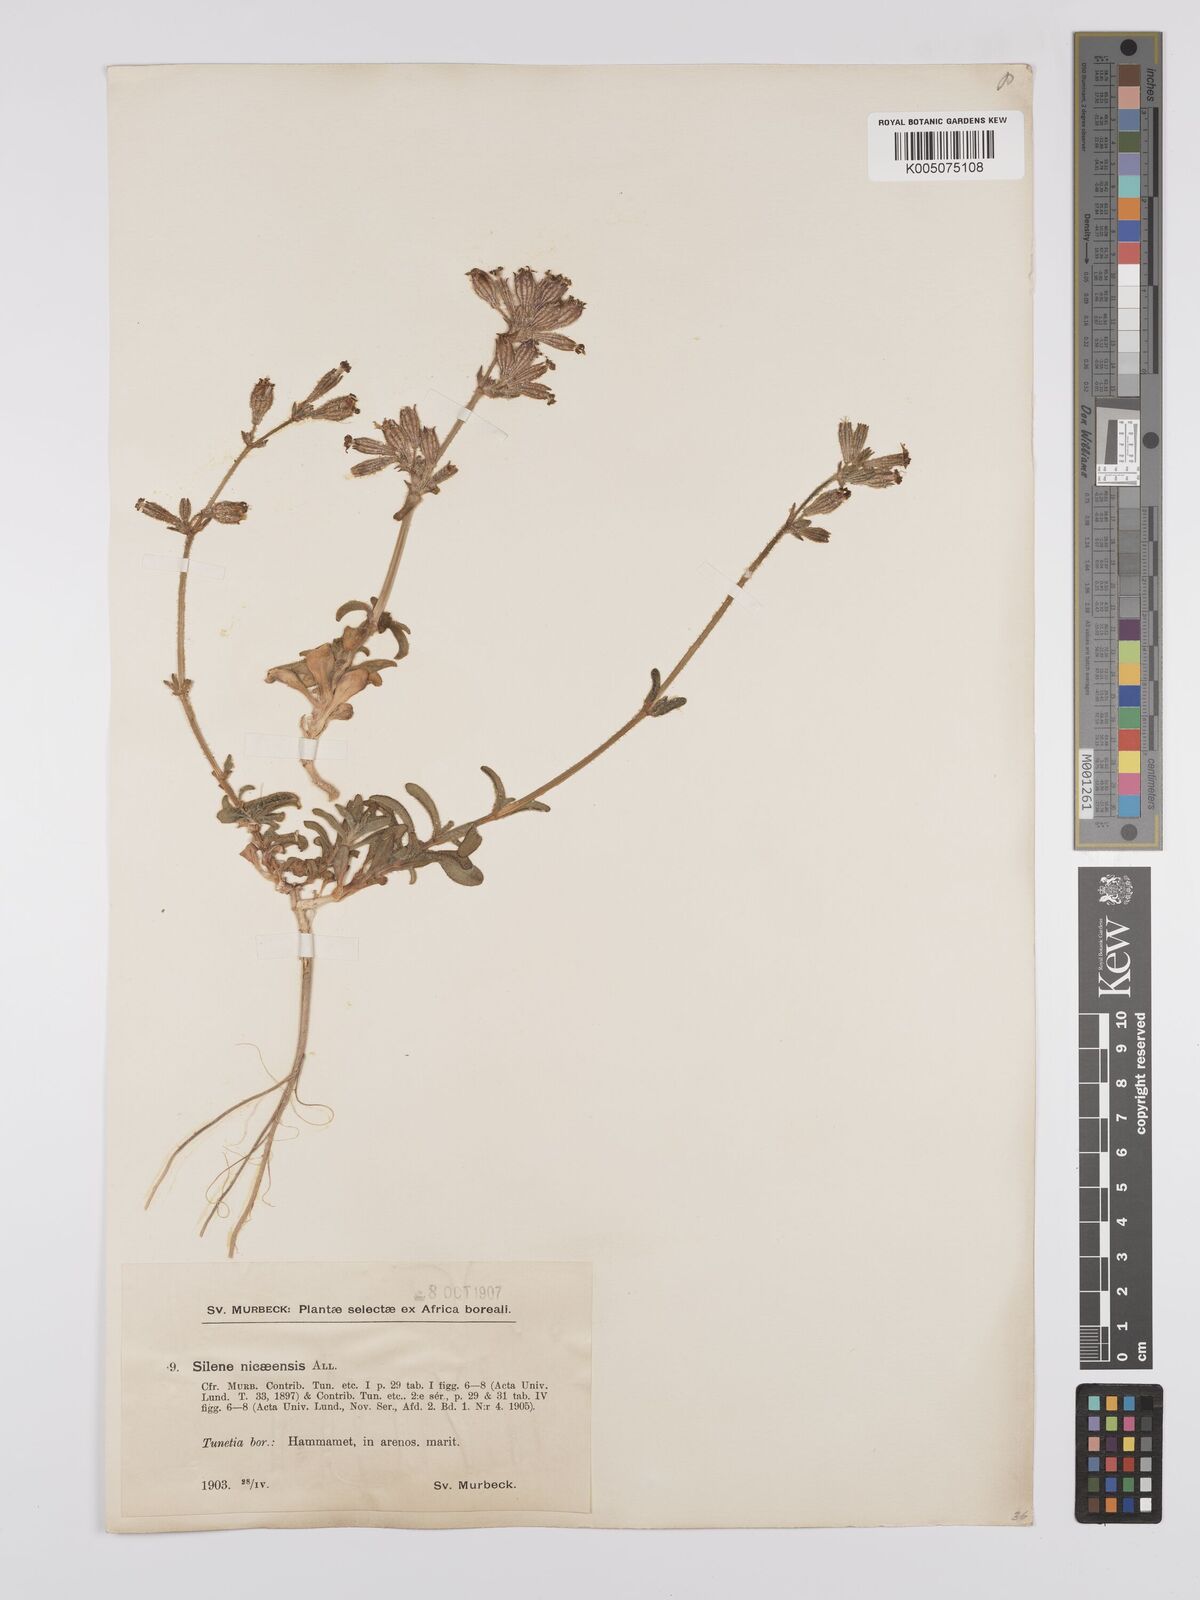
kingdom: Plantae
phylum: Tracheophyta
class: Magnoliopsida
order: Caryophyllales
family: Caryophyllaceae
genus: Silene
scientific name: Silene nicaeensis
